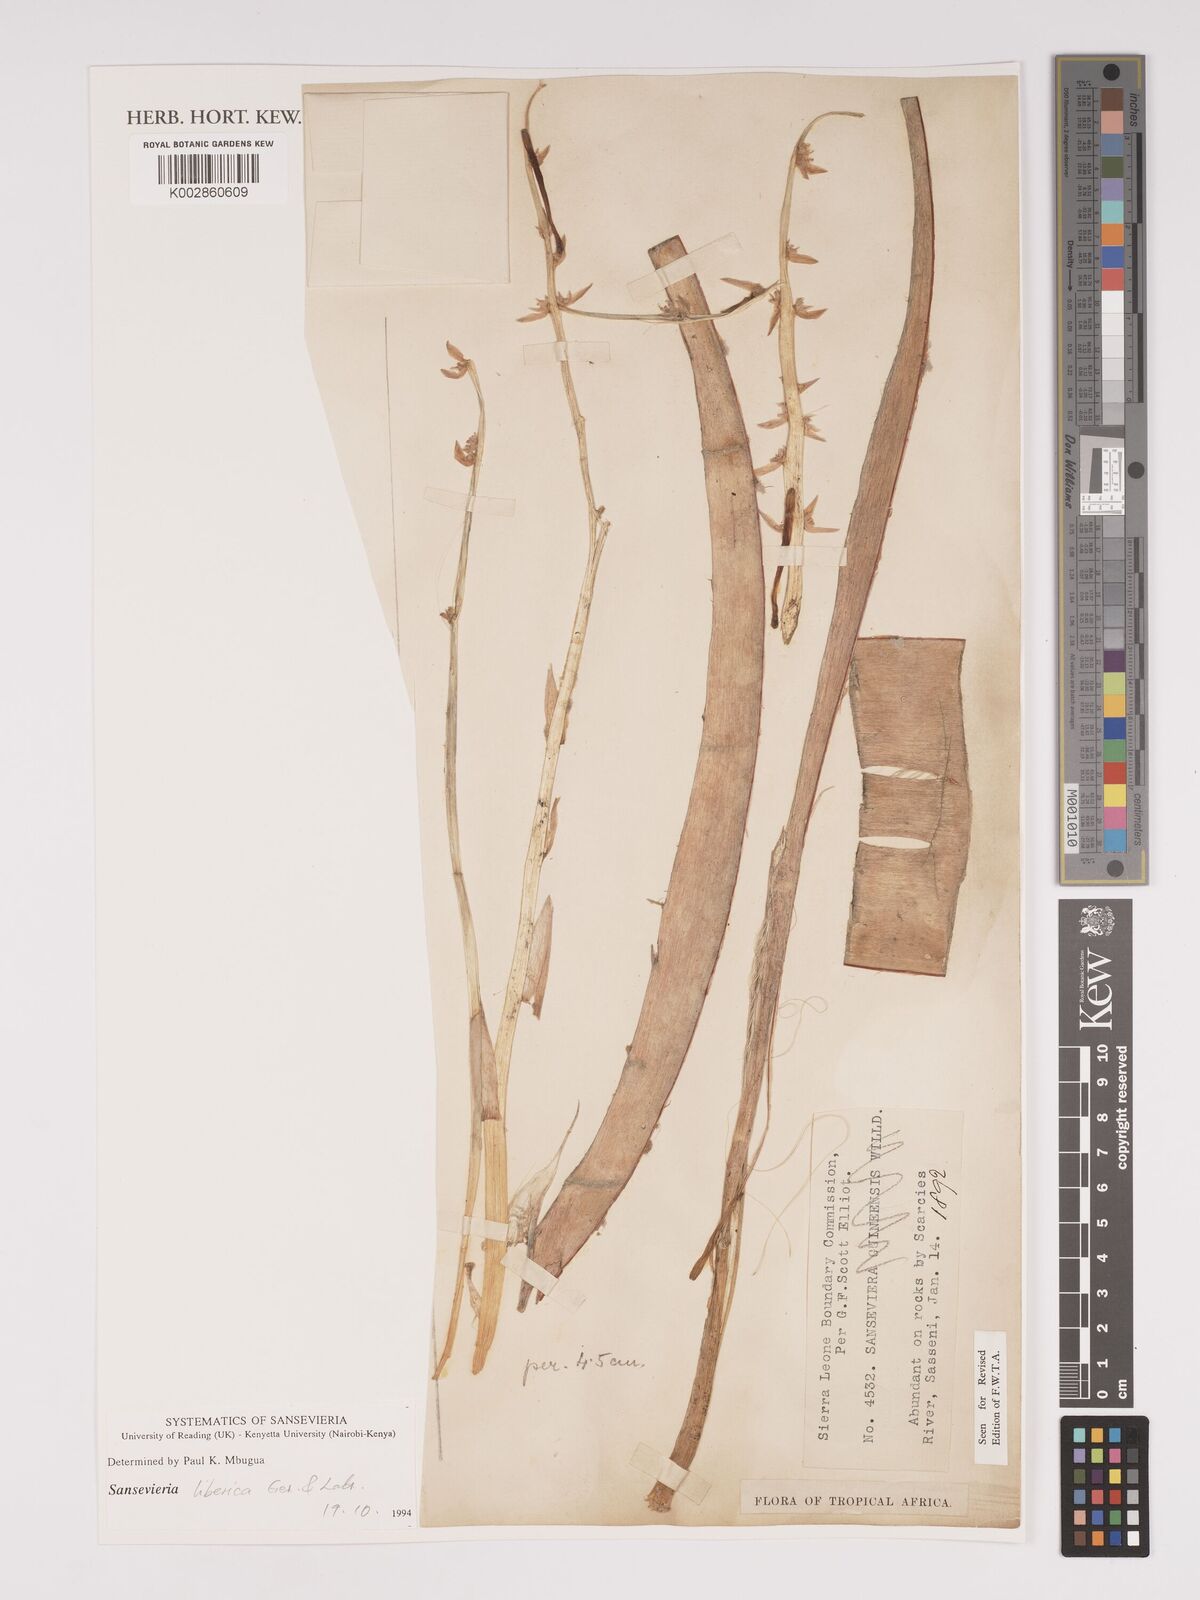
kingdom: Plantae
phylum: Tracheophyta
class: Liliopsida
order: Asparagales
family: Asparagaceae
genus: Dracaena
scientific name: Dracaena liberica
